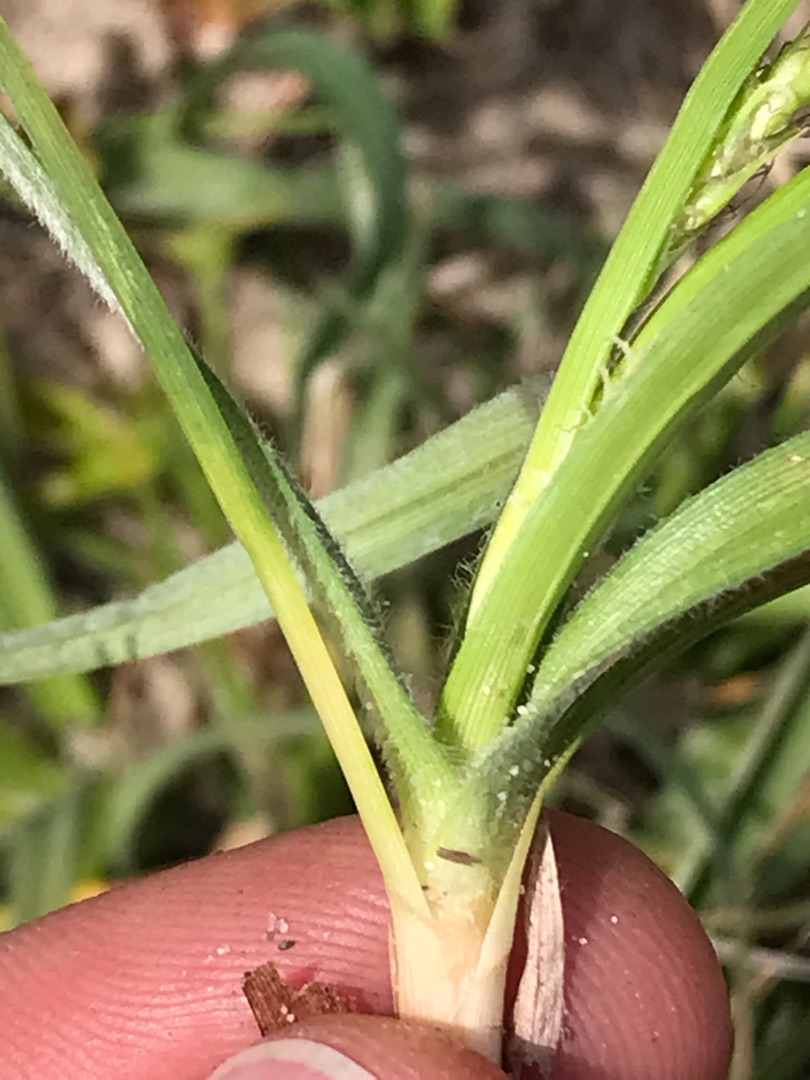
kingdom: Plantae
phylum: Tracheophyta
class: Liliopsida
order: Poales
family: Cyperaceae
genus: Carex
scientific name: Carex hirta
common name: Håret star
